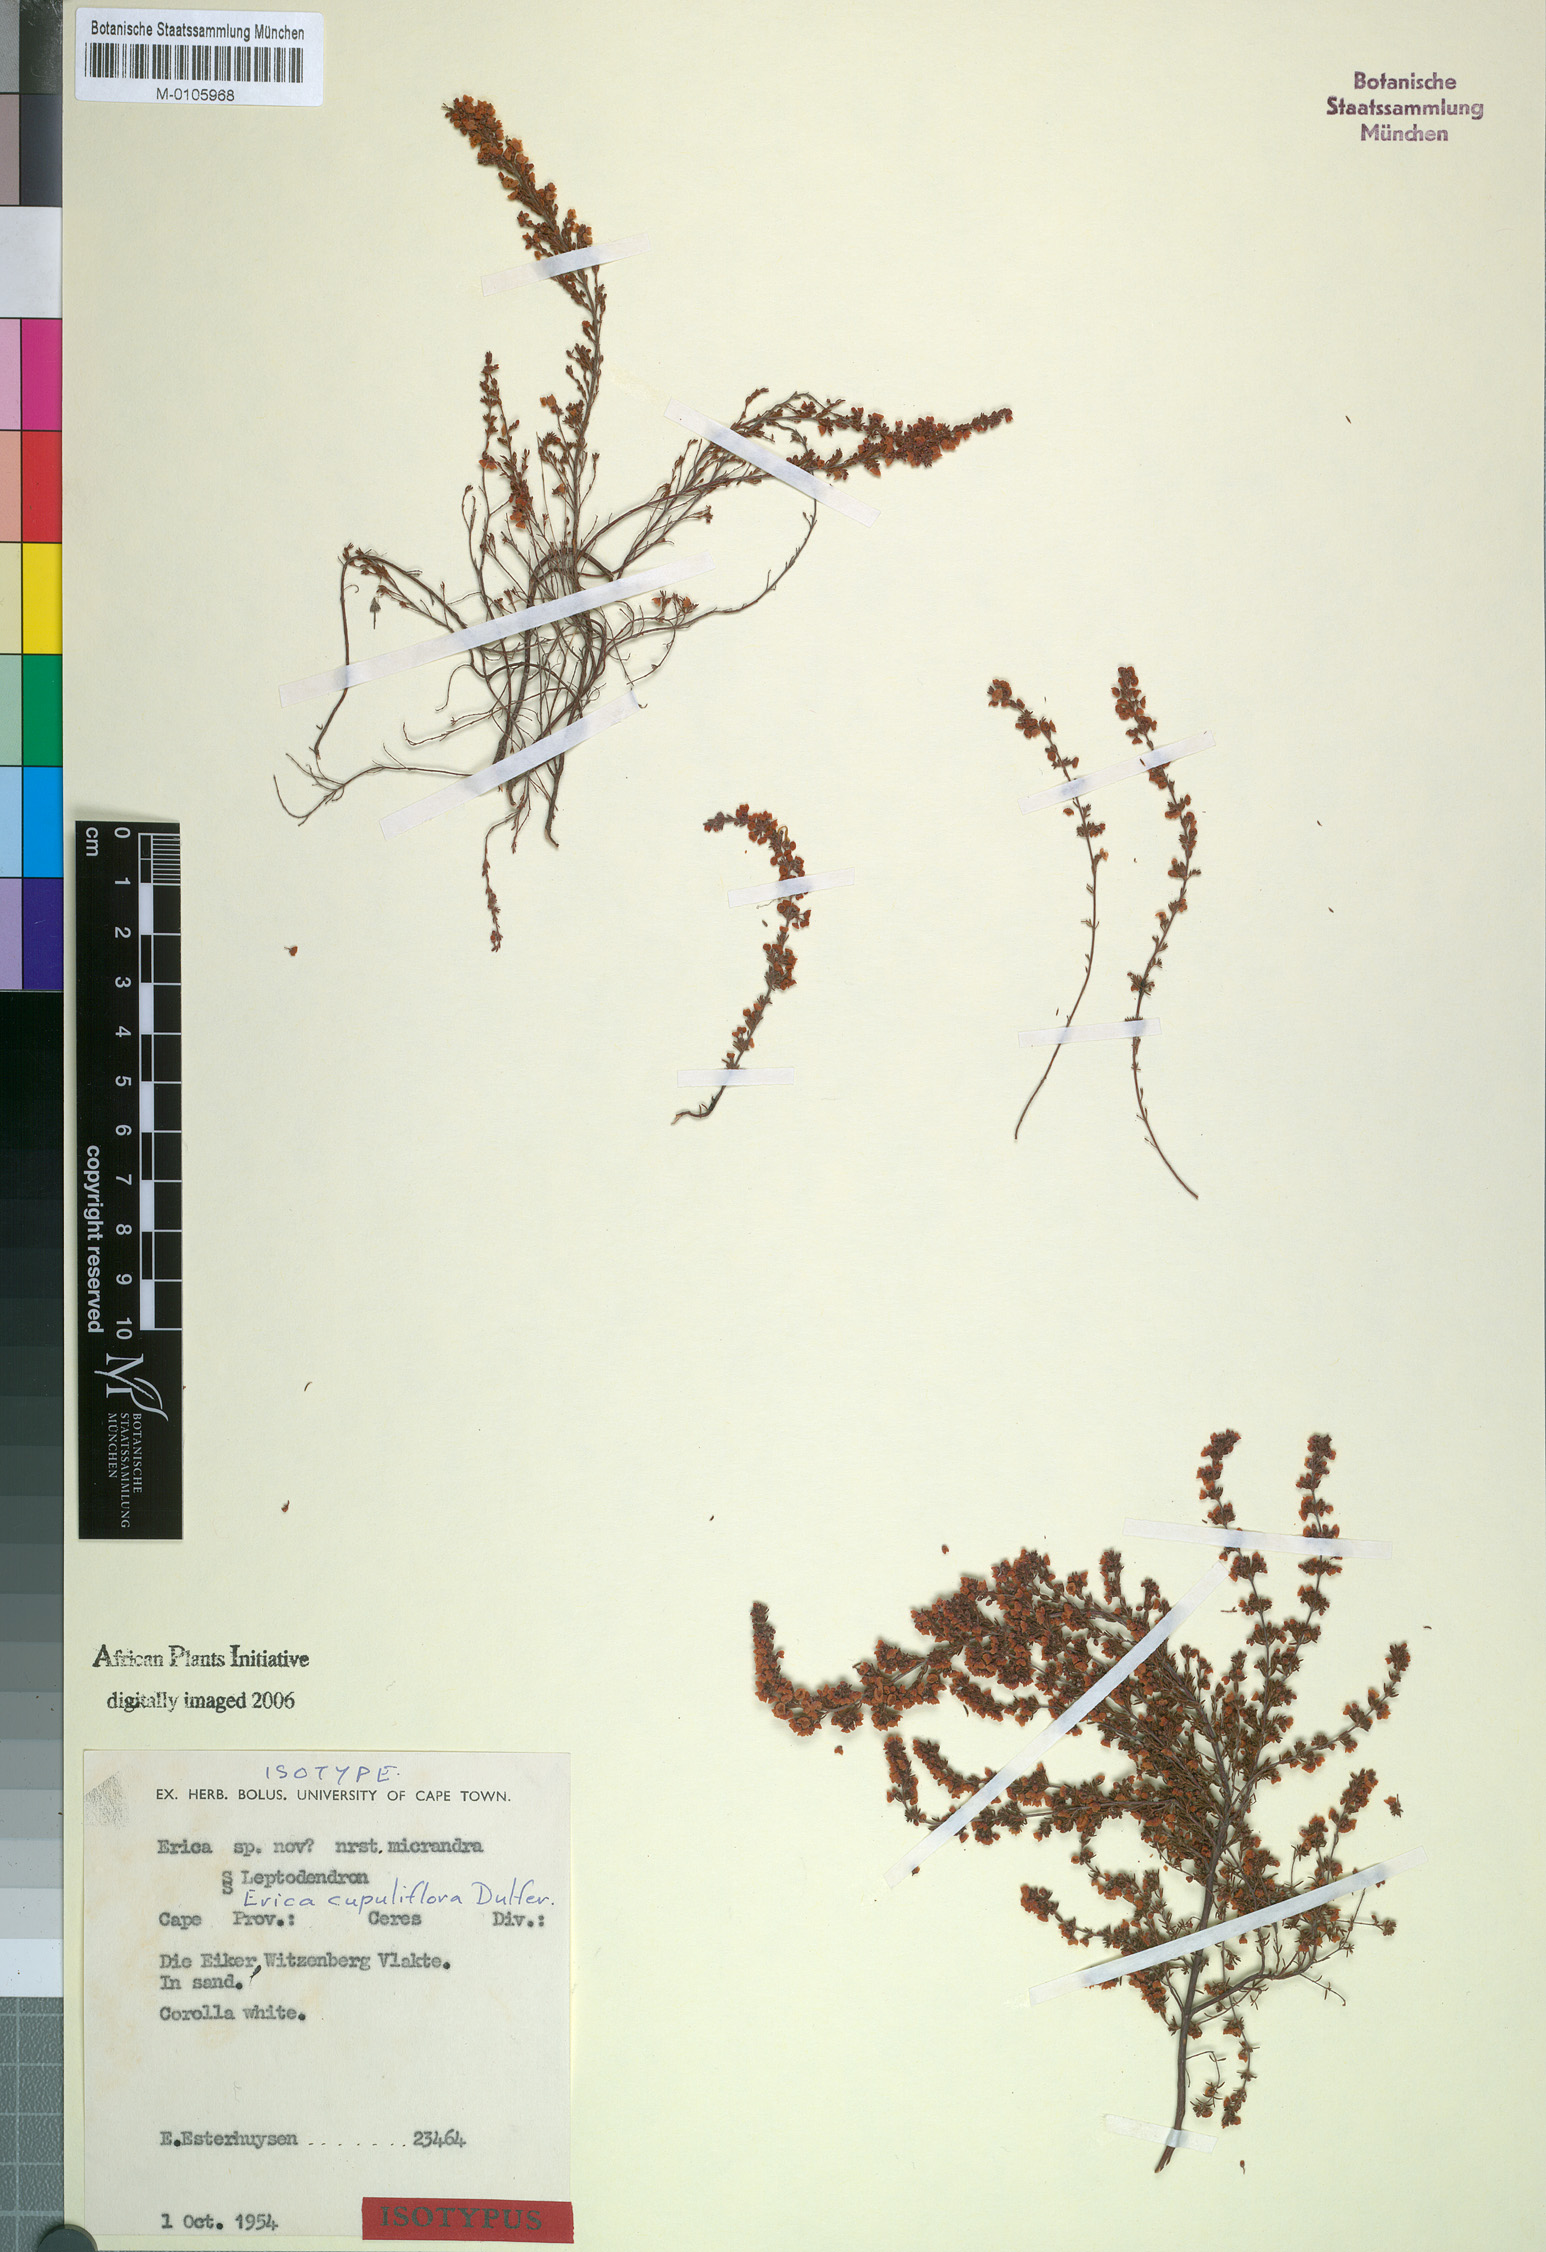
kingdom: Plantae
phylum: Tracheophyta
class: Magnoliopsida
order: Ericales
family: Ericaceae
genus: Erica
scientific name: Erica florifera
